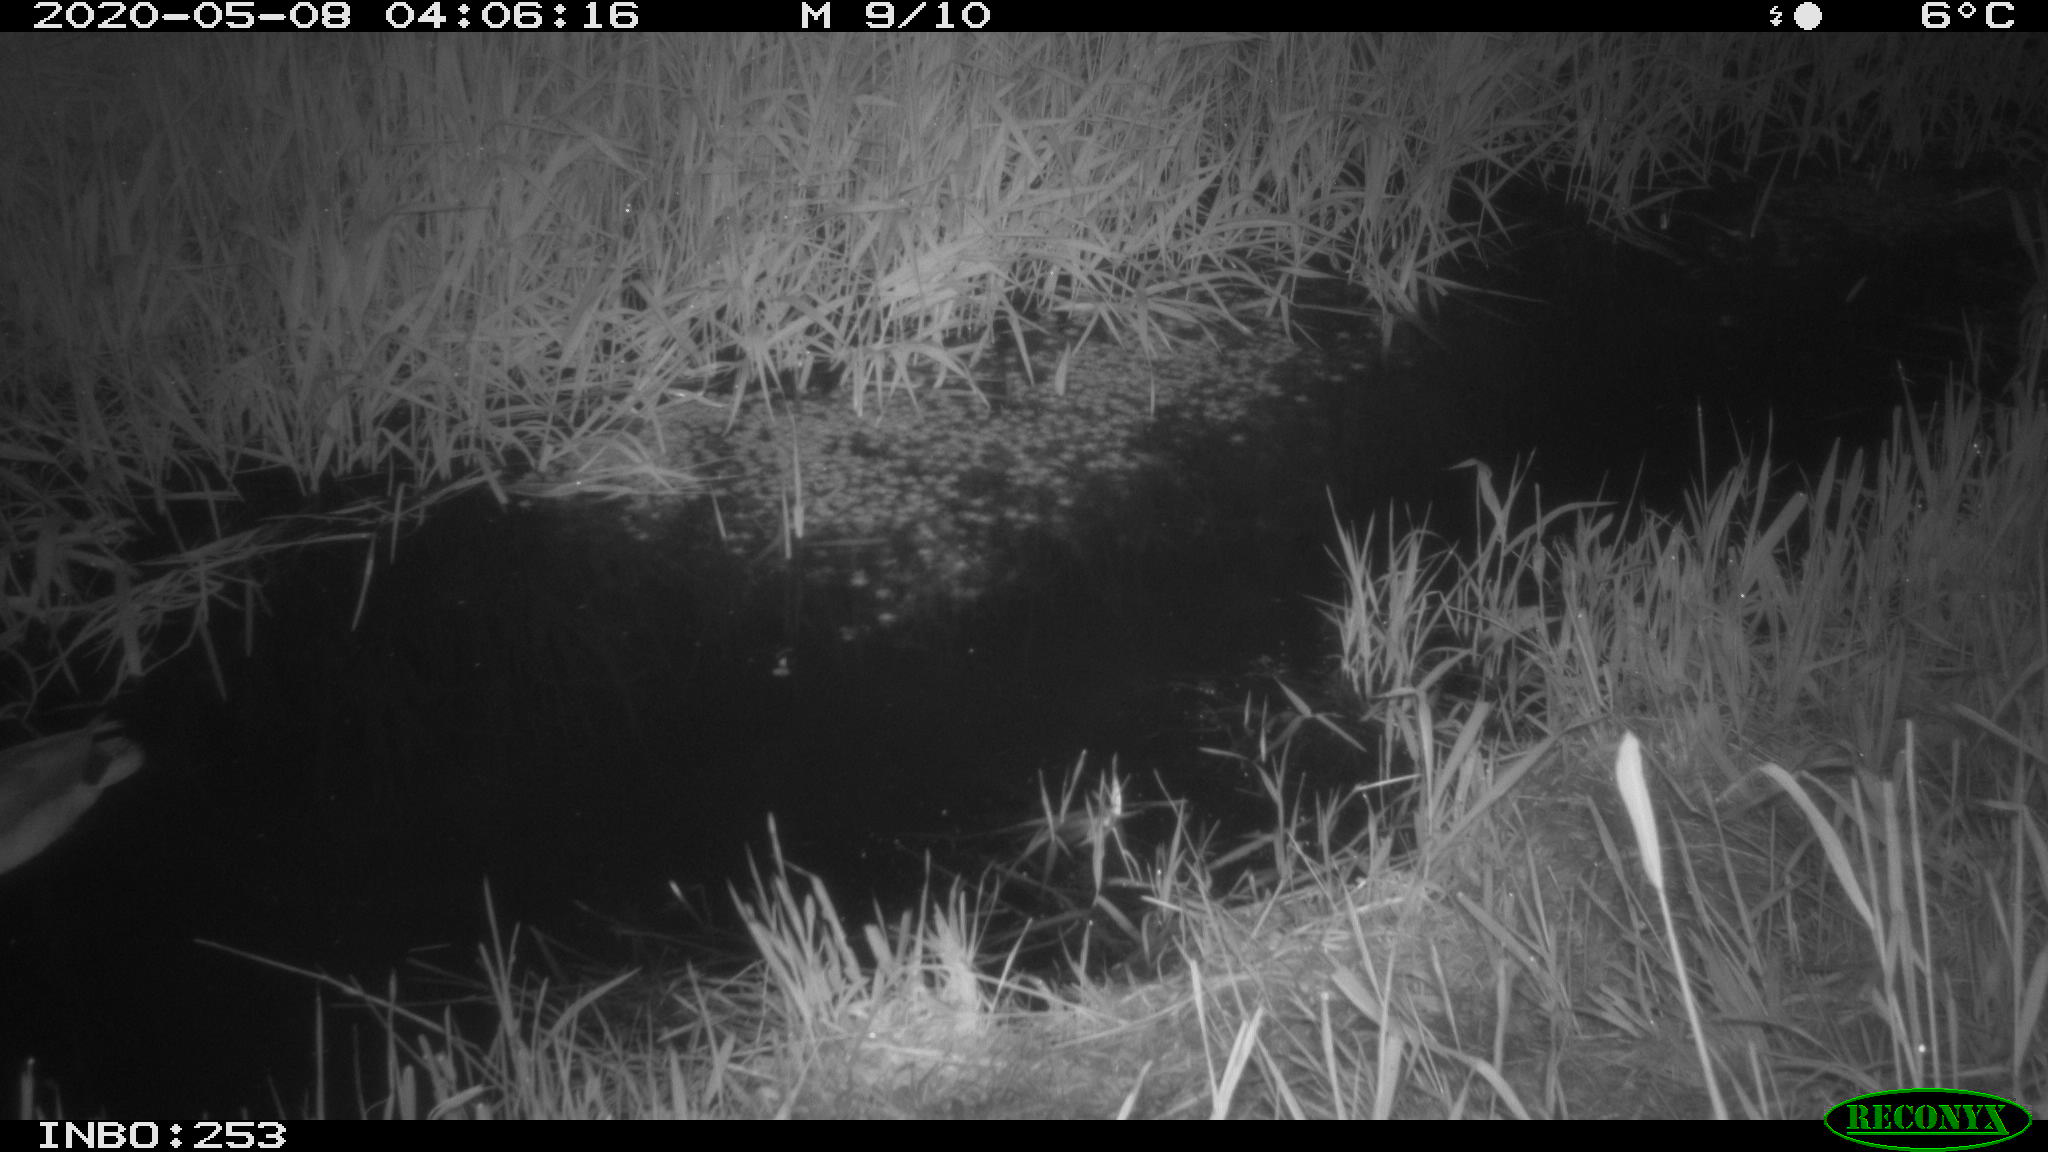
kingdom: Animalia
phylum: Chordata
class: Aves
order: Anseriformes
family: Anatidae
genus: Anas
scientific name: Anas platyrhynchos
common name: Mallard
